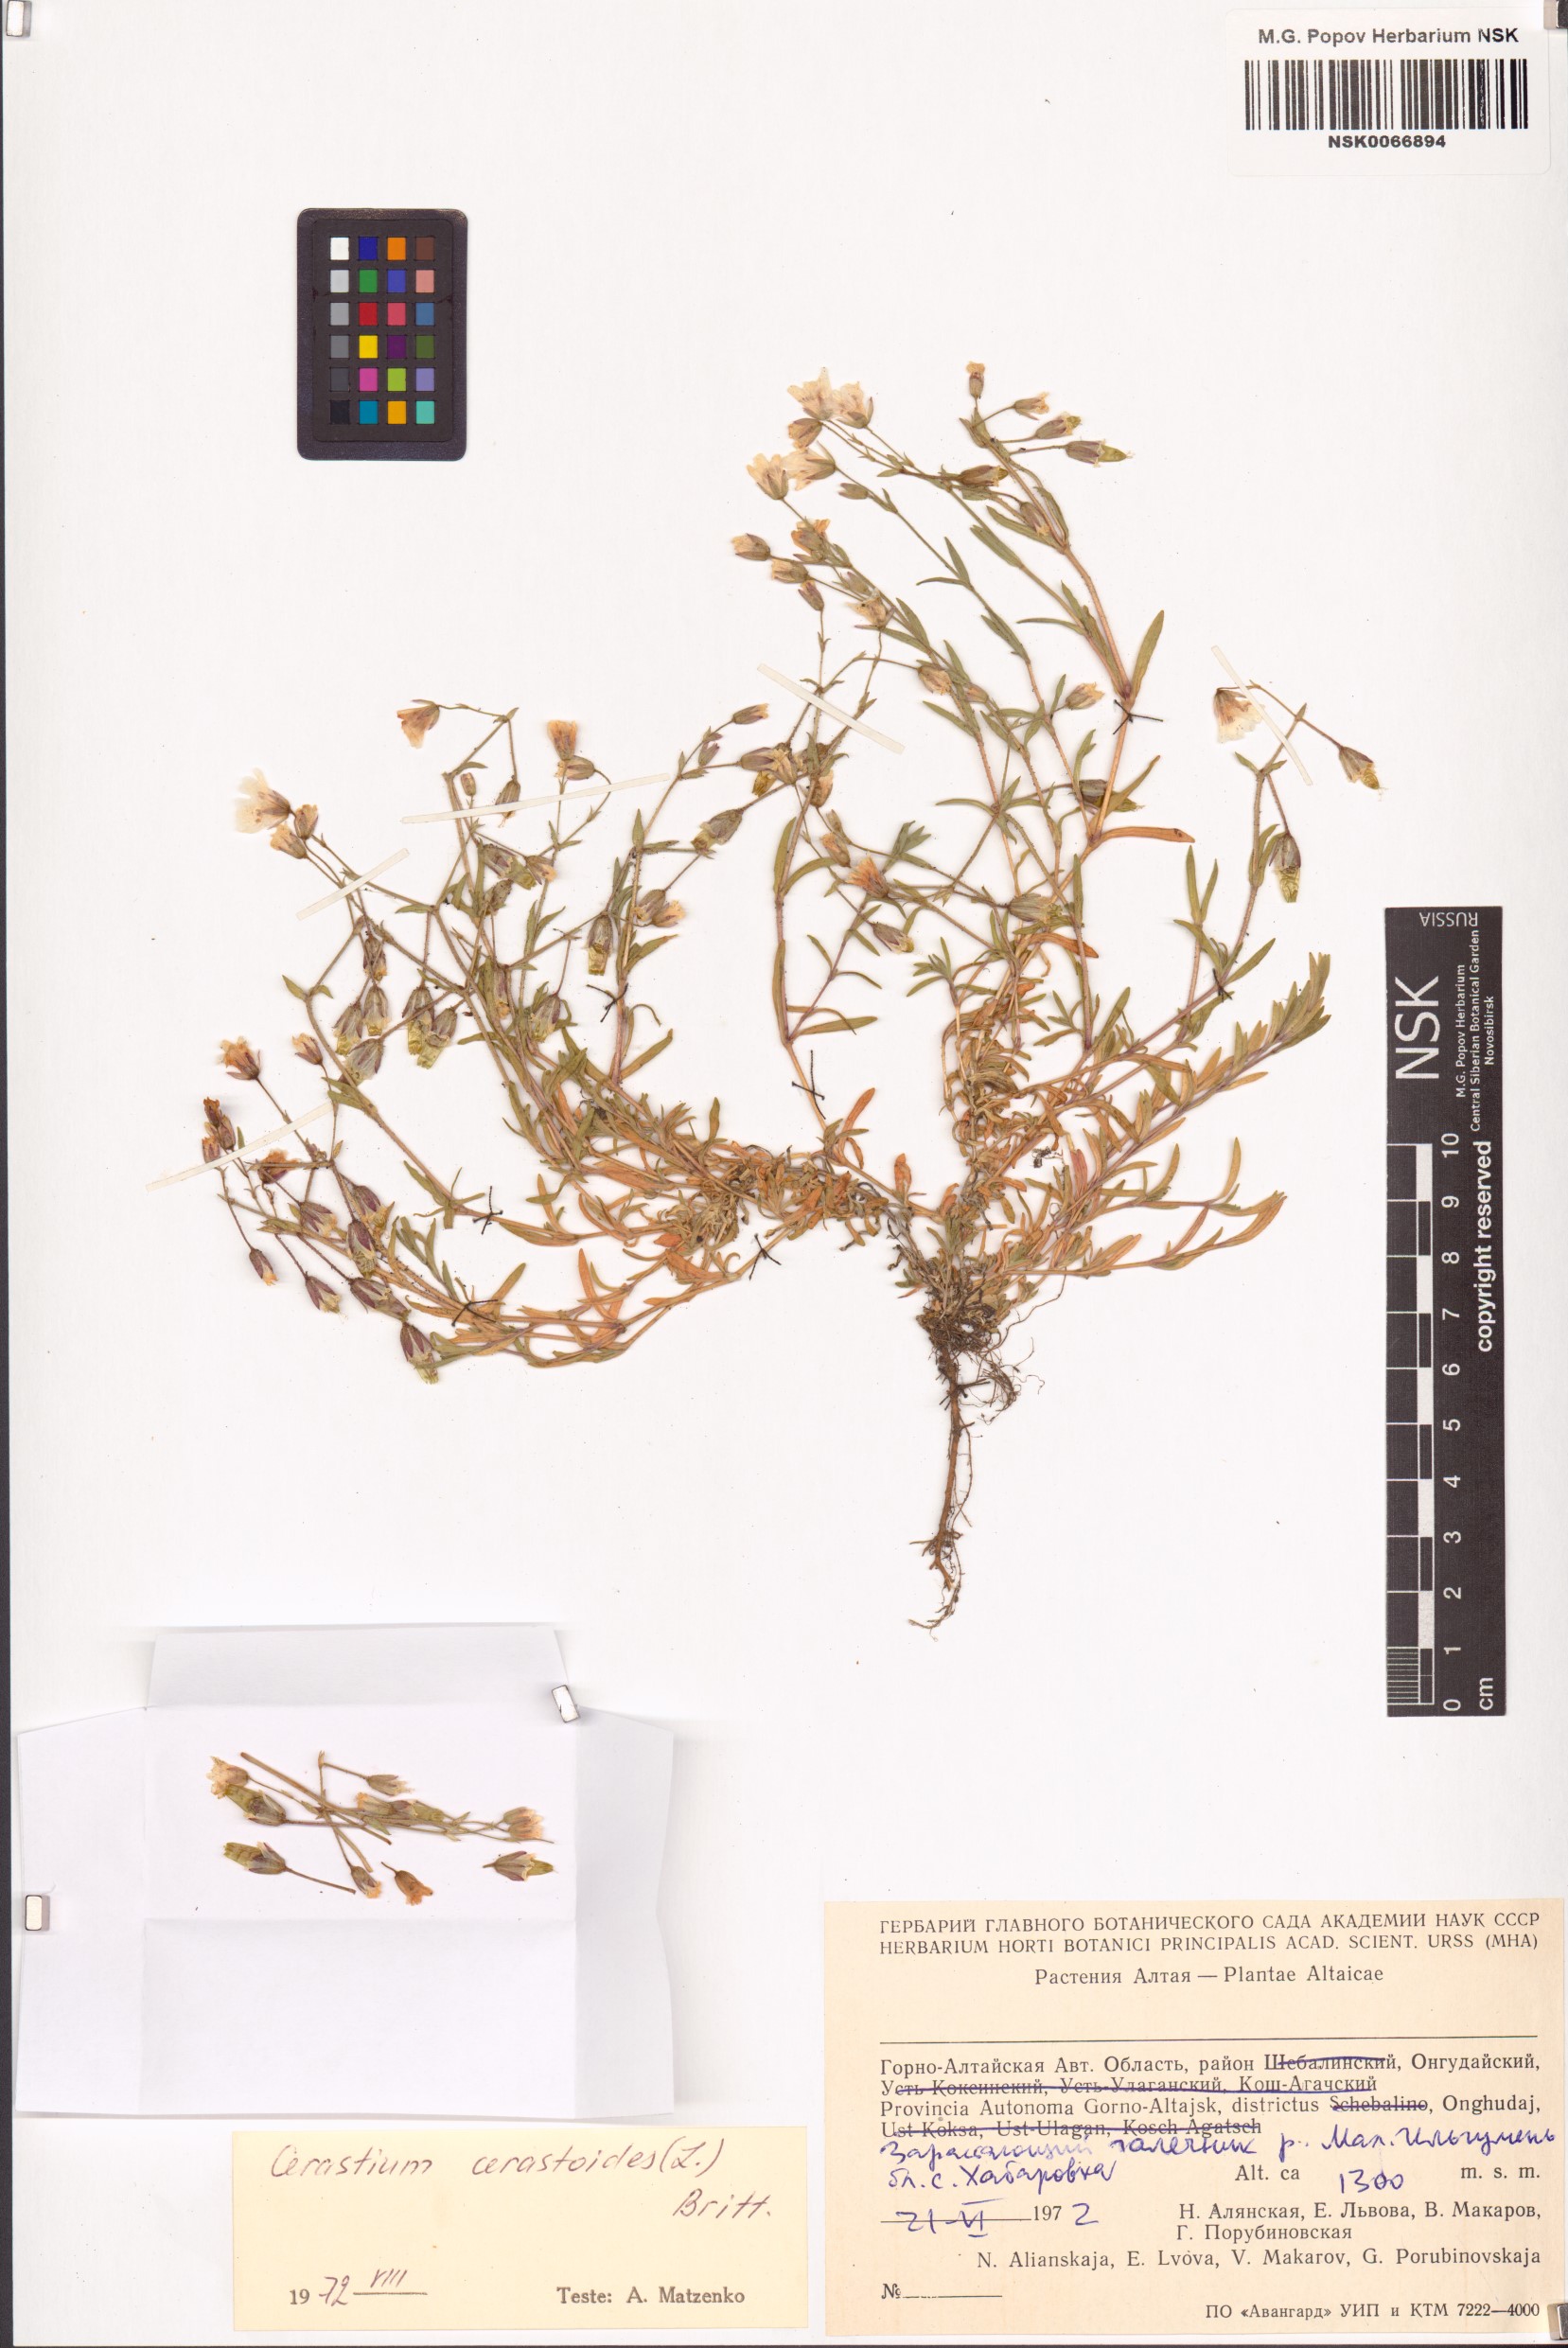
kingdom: Plantae
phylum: Tracheophyta
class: Magnoliopsida
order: Caryophyllales
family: Caryophyllaceae
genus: Dichodon
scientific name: Dichodon cerastoides
